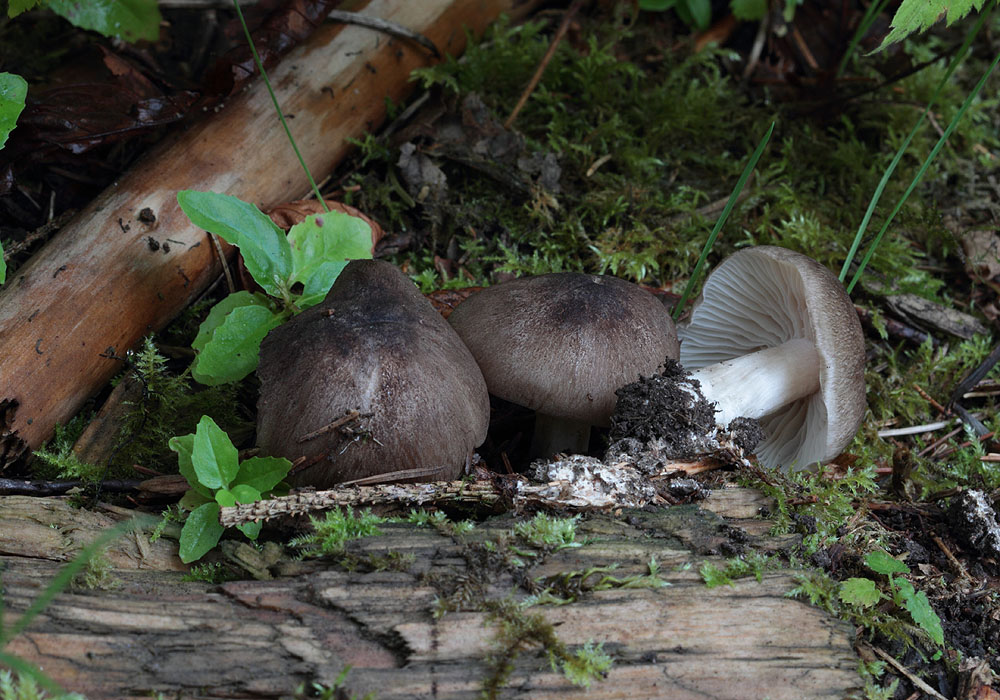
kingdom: Fungi
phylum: Basidiomycota
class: Agaricomycetes
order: Agaricales
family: Tricholomataceae
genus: Megacollybia
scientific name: Megacollybia platyphylla
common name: bredbladet væbnerhat
